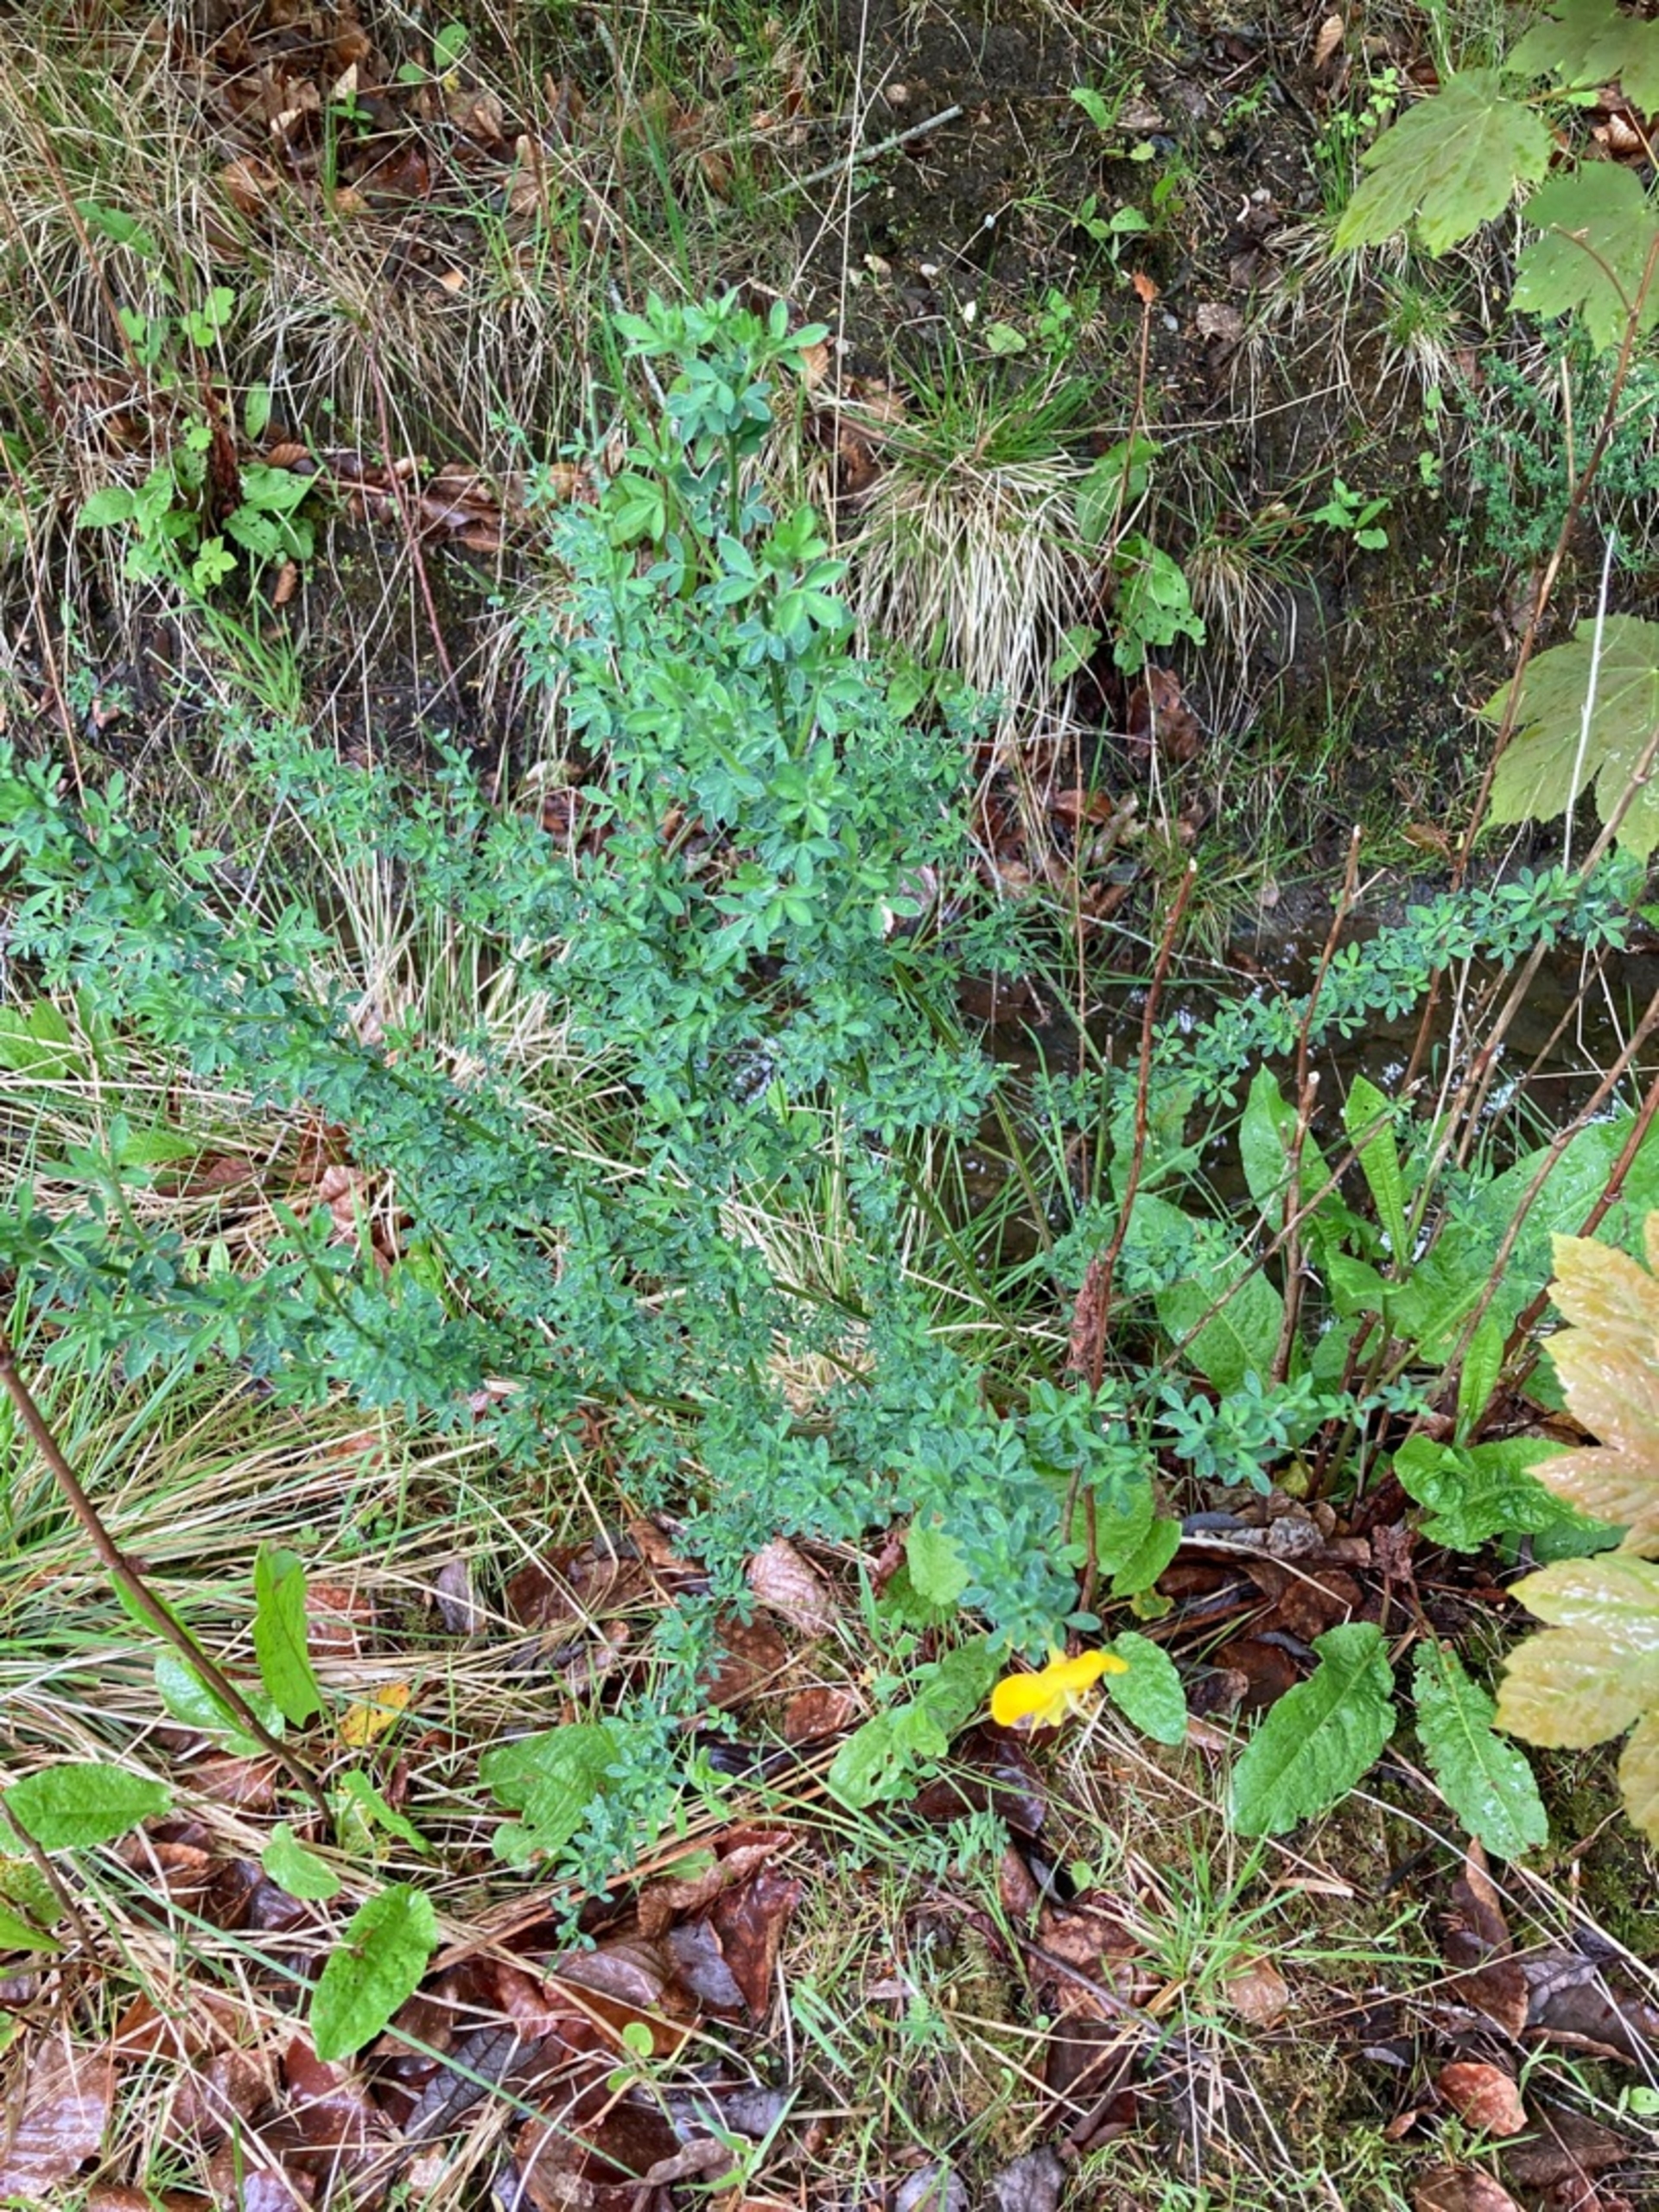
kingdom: Plantae
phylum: Tracheophyta
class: Magnoliopsida
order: Fabales
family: Fabaceae
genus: Cytisus
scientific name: Cytisus scoparius
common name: Almindelig gyvel
